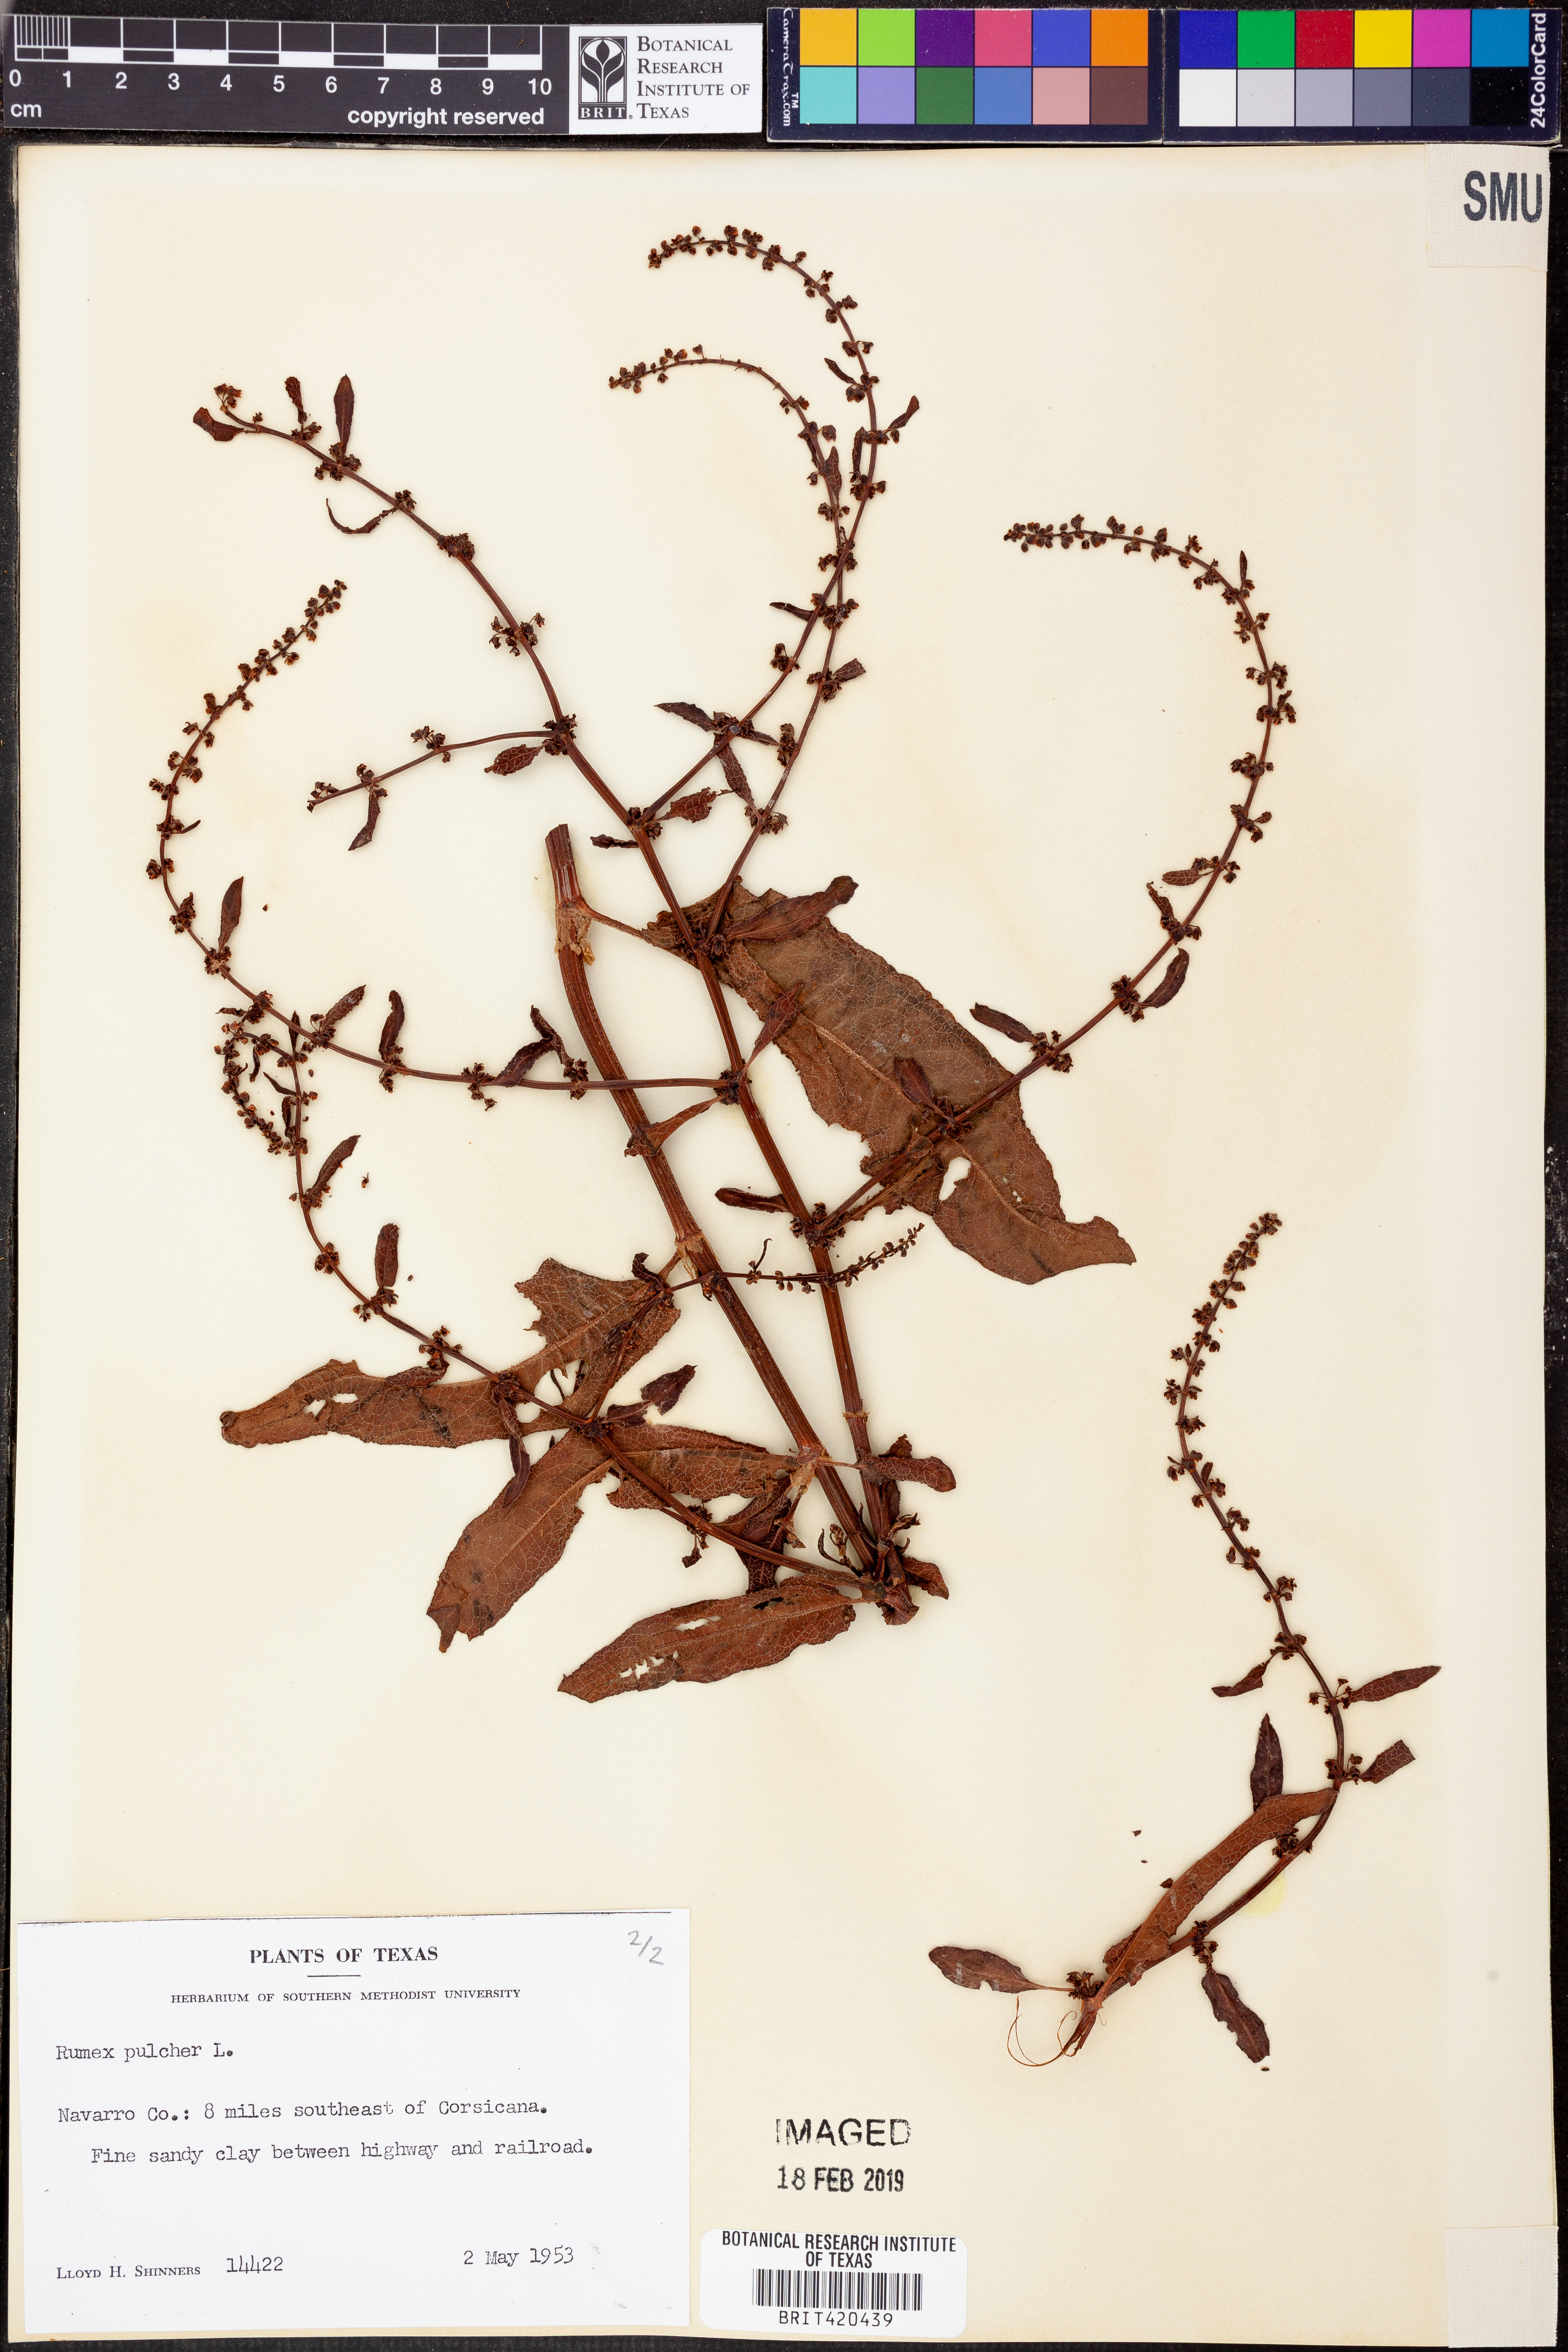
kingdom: Plantae
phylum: Tracheophyta
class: Magnoliopsida
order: Caryophyllales
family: Polygonaceae
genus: Rumex
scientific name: Rumex pulcher
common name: Fiddle dock
